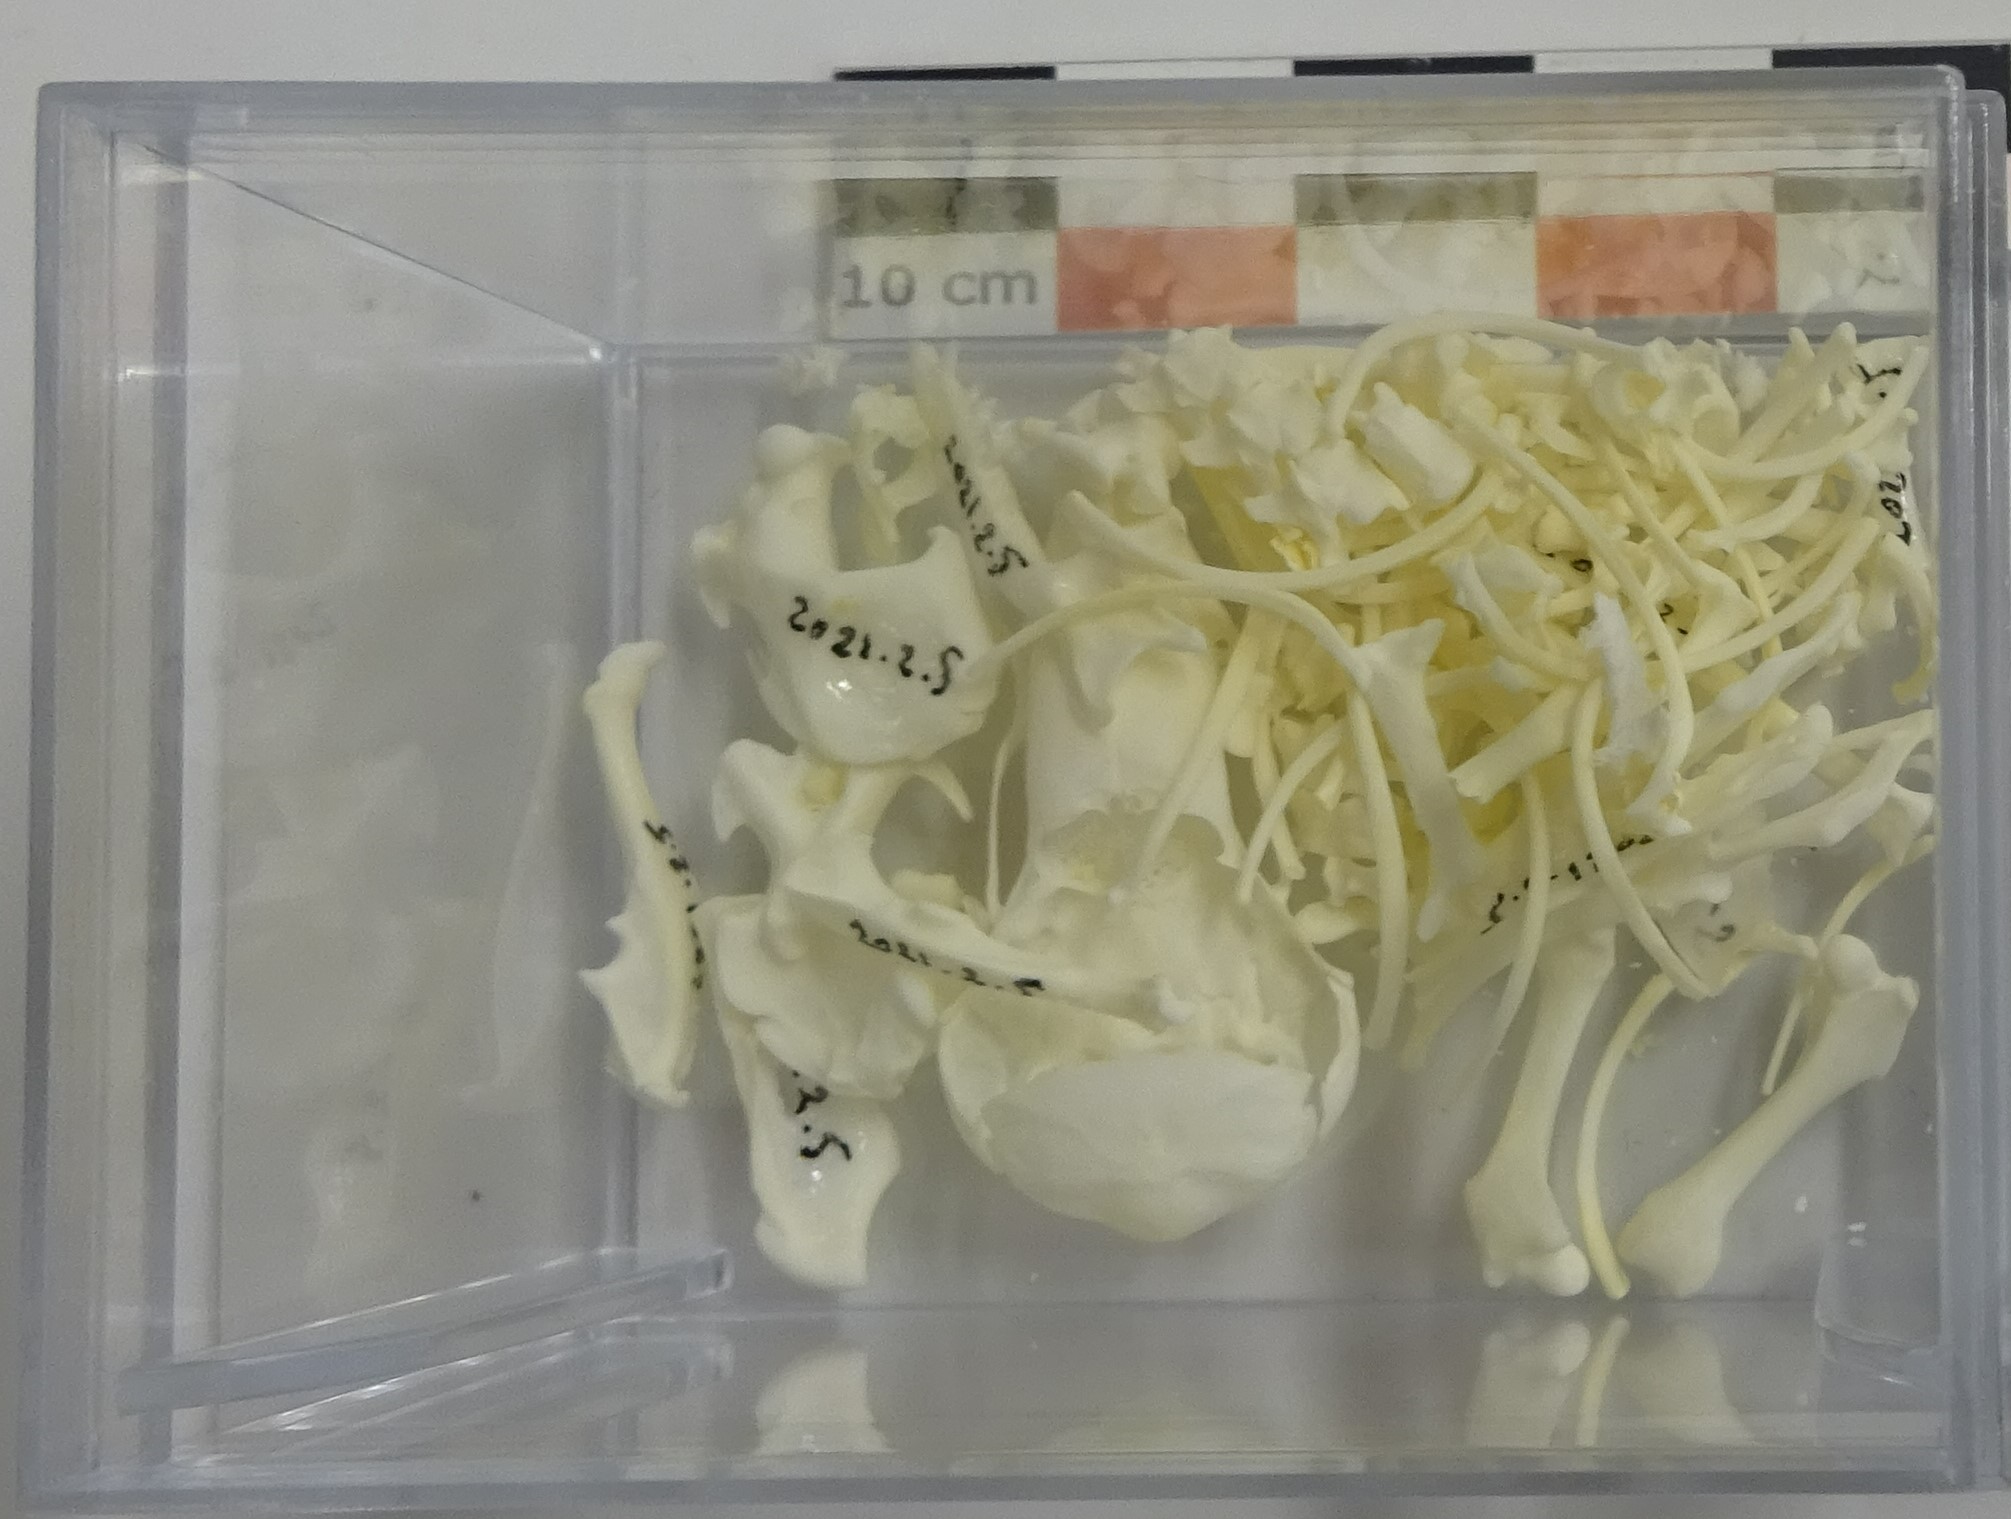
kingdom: Animalia
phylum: Chordata
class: Mammalia
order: Soricomorpha
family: Talpidae
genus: Talpa
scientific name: Talpa europaea
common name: European mole
